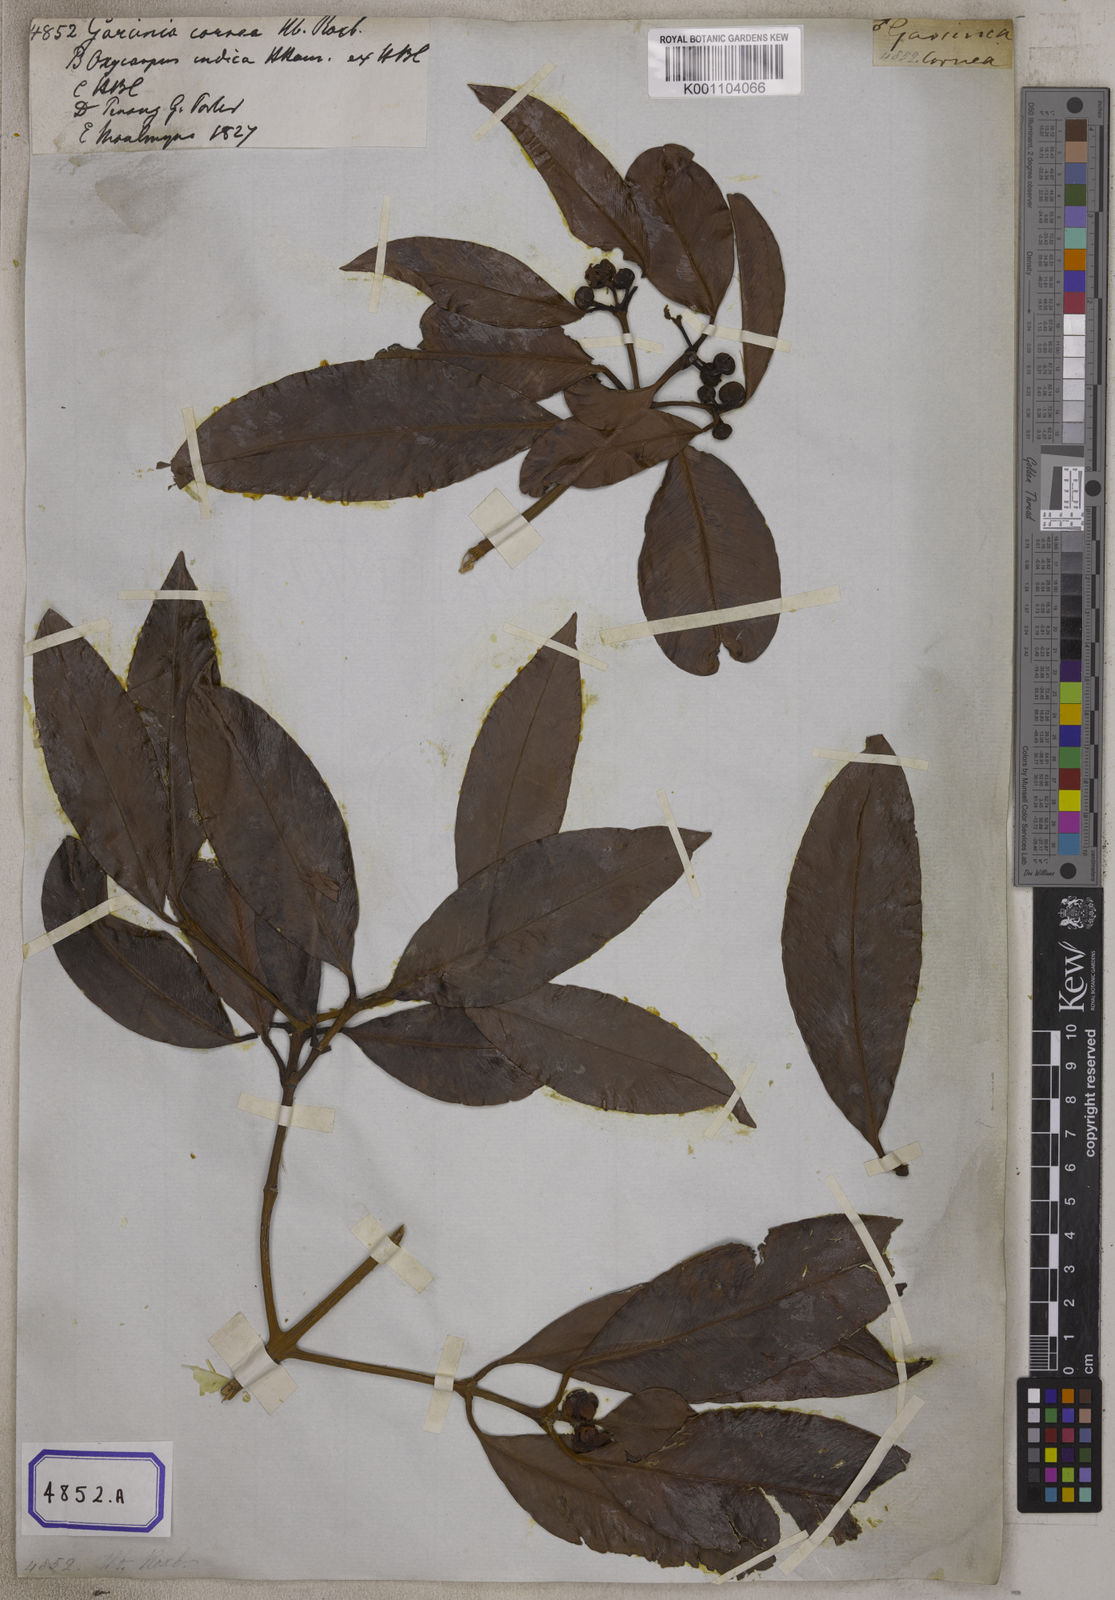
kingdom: Plantae
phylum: Tracheophyta
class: Magnoliopsida
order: Malpighiales
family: Clusiaceae
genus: Garcinia
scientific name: Garcinia celebica
